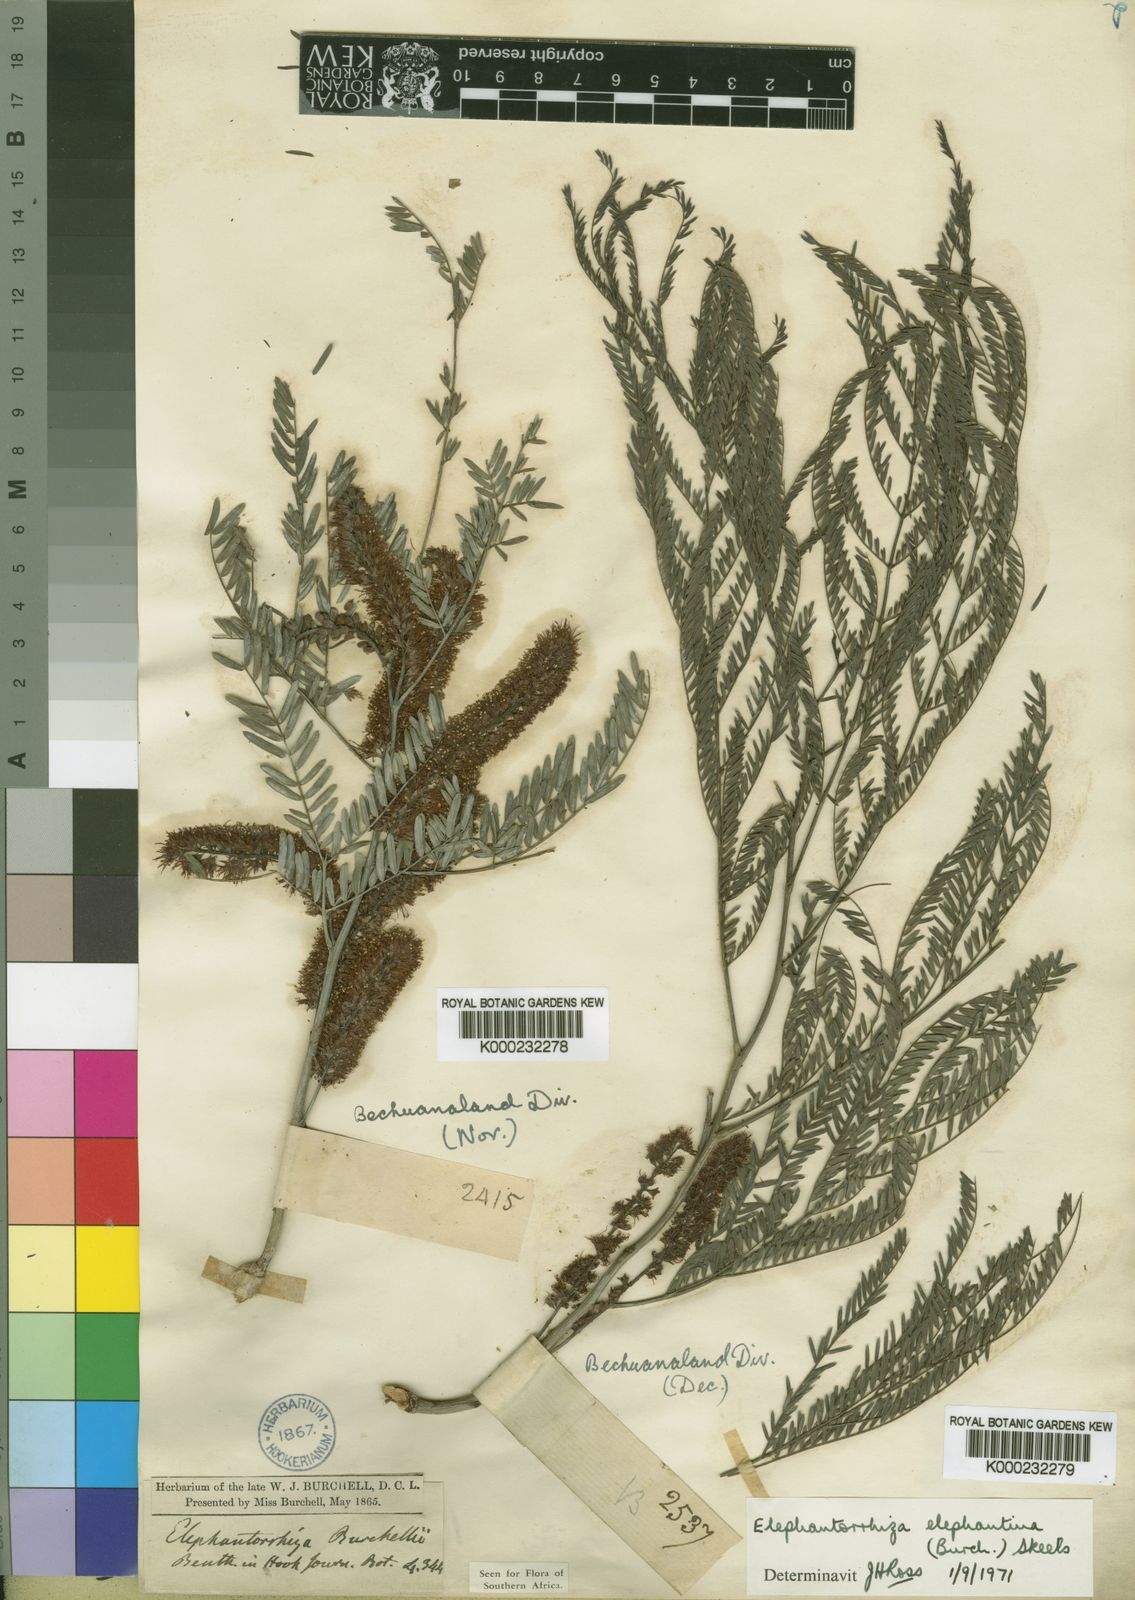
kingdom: Plantae
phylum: Tracheophyta
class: Magnoliopsida
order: Fabales
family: Fabaceae
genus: Elephantorrhiza
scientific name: Elephantorrhiza elephantina
